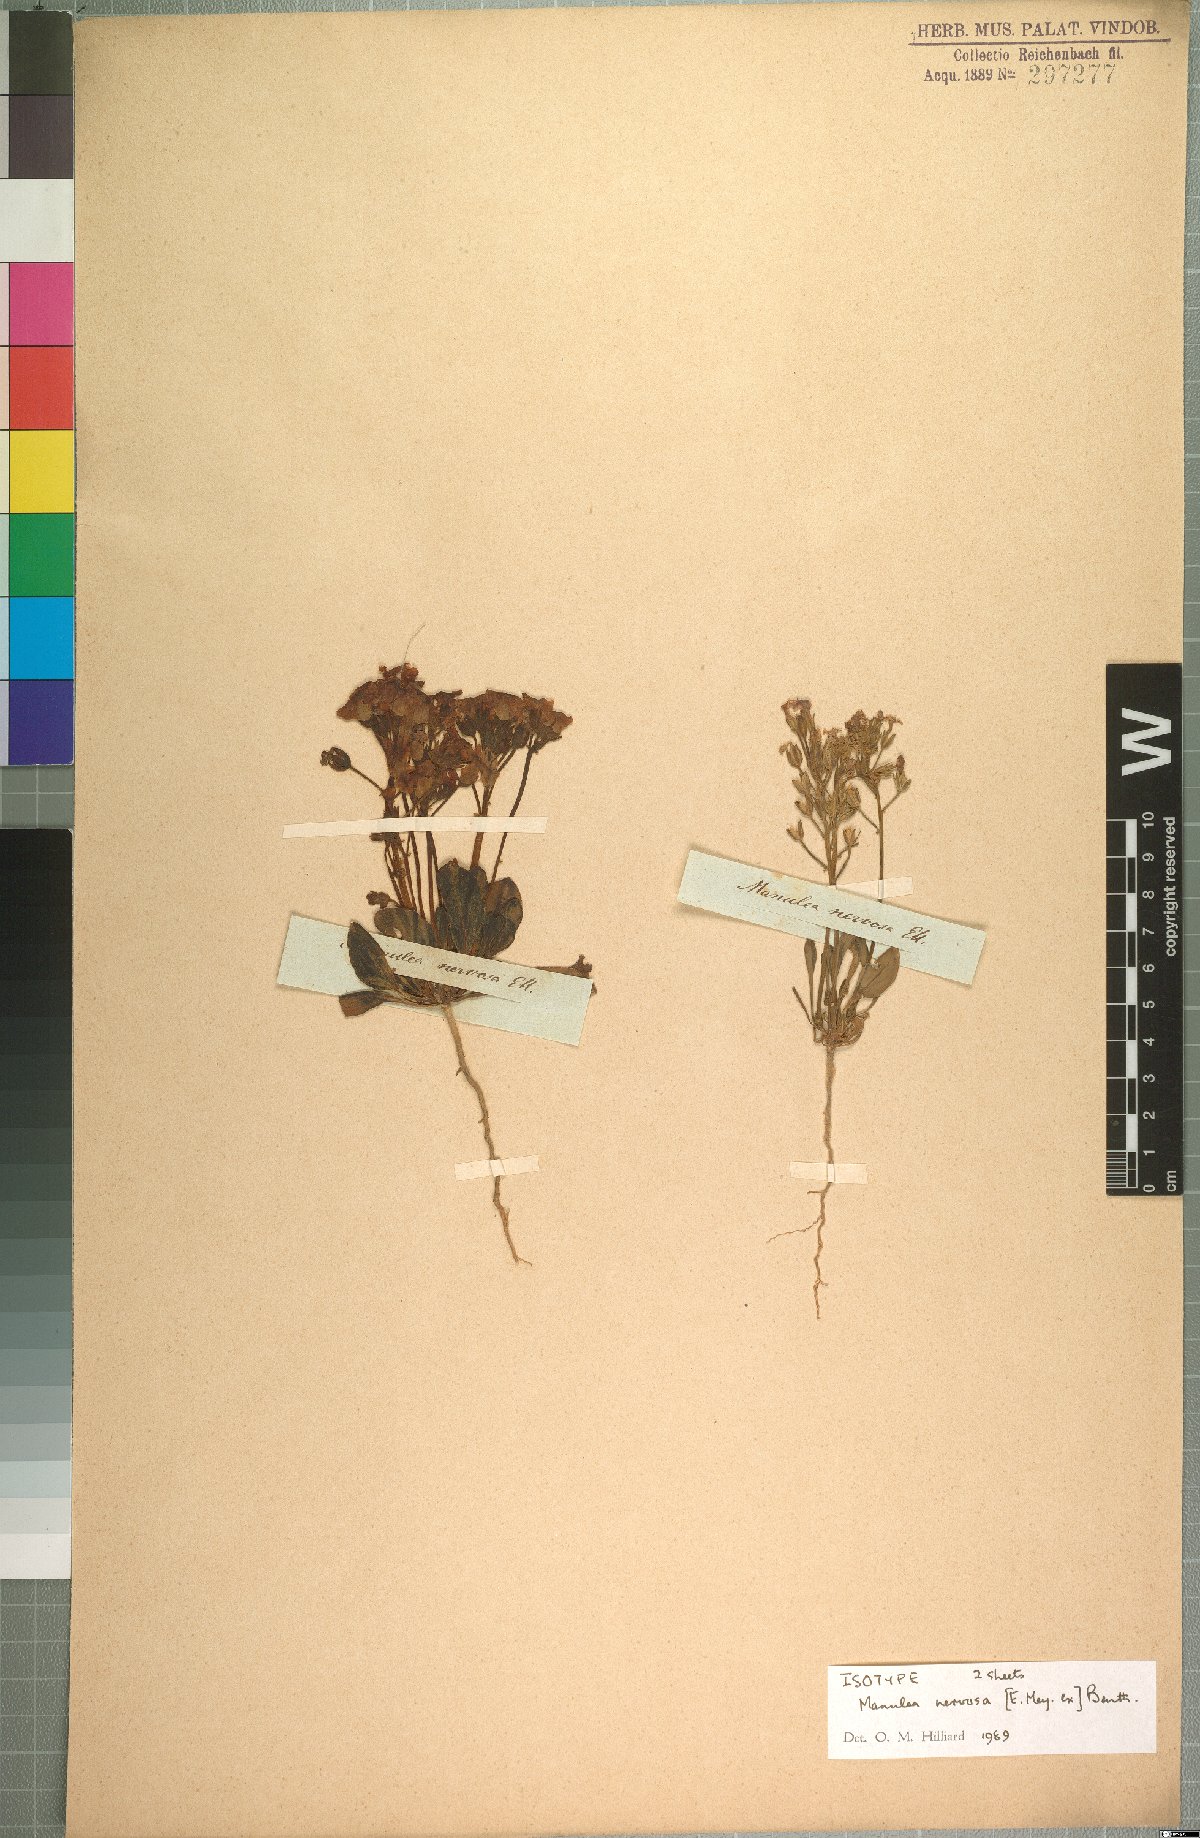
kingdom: Plantae
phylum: Tracheophyta
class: Magnoliopsida
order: Lamiales
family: Scrophulariaceae
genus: Manulea
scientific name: Manulea nervosa
